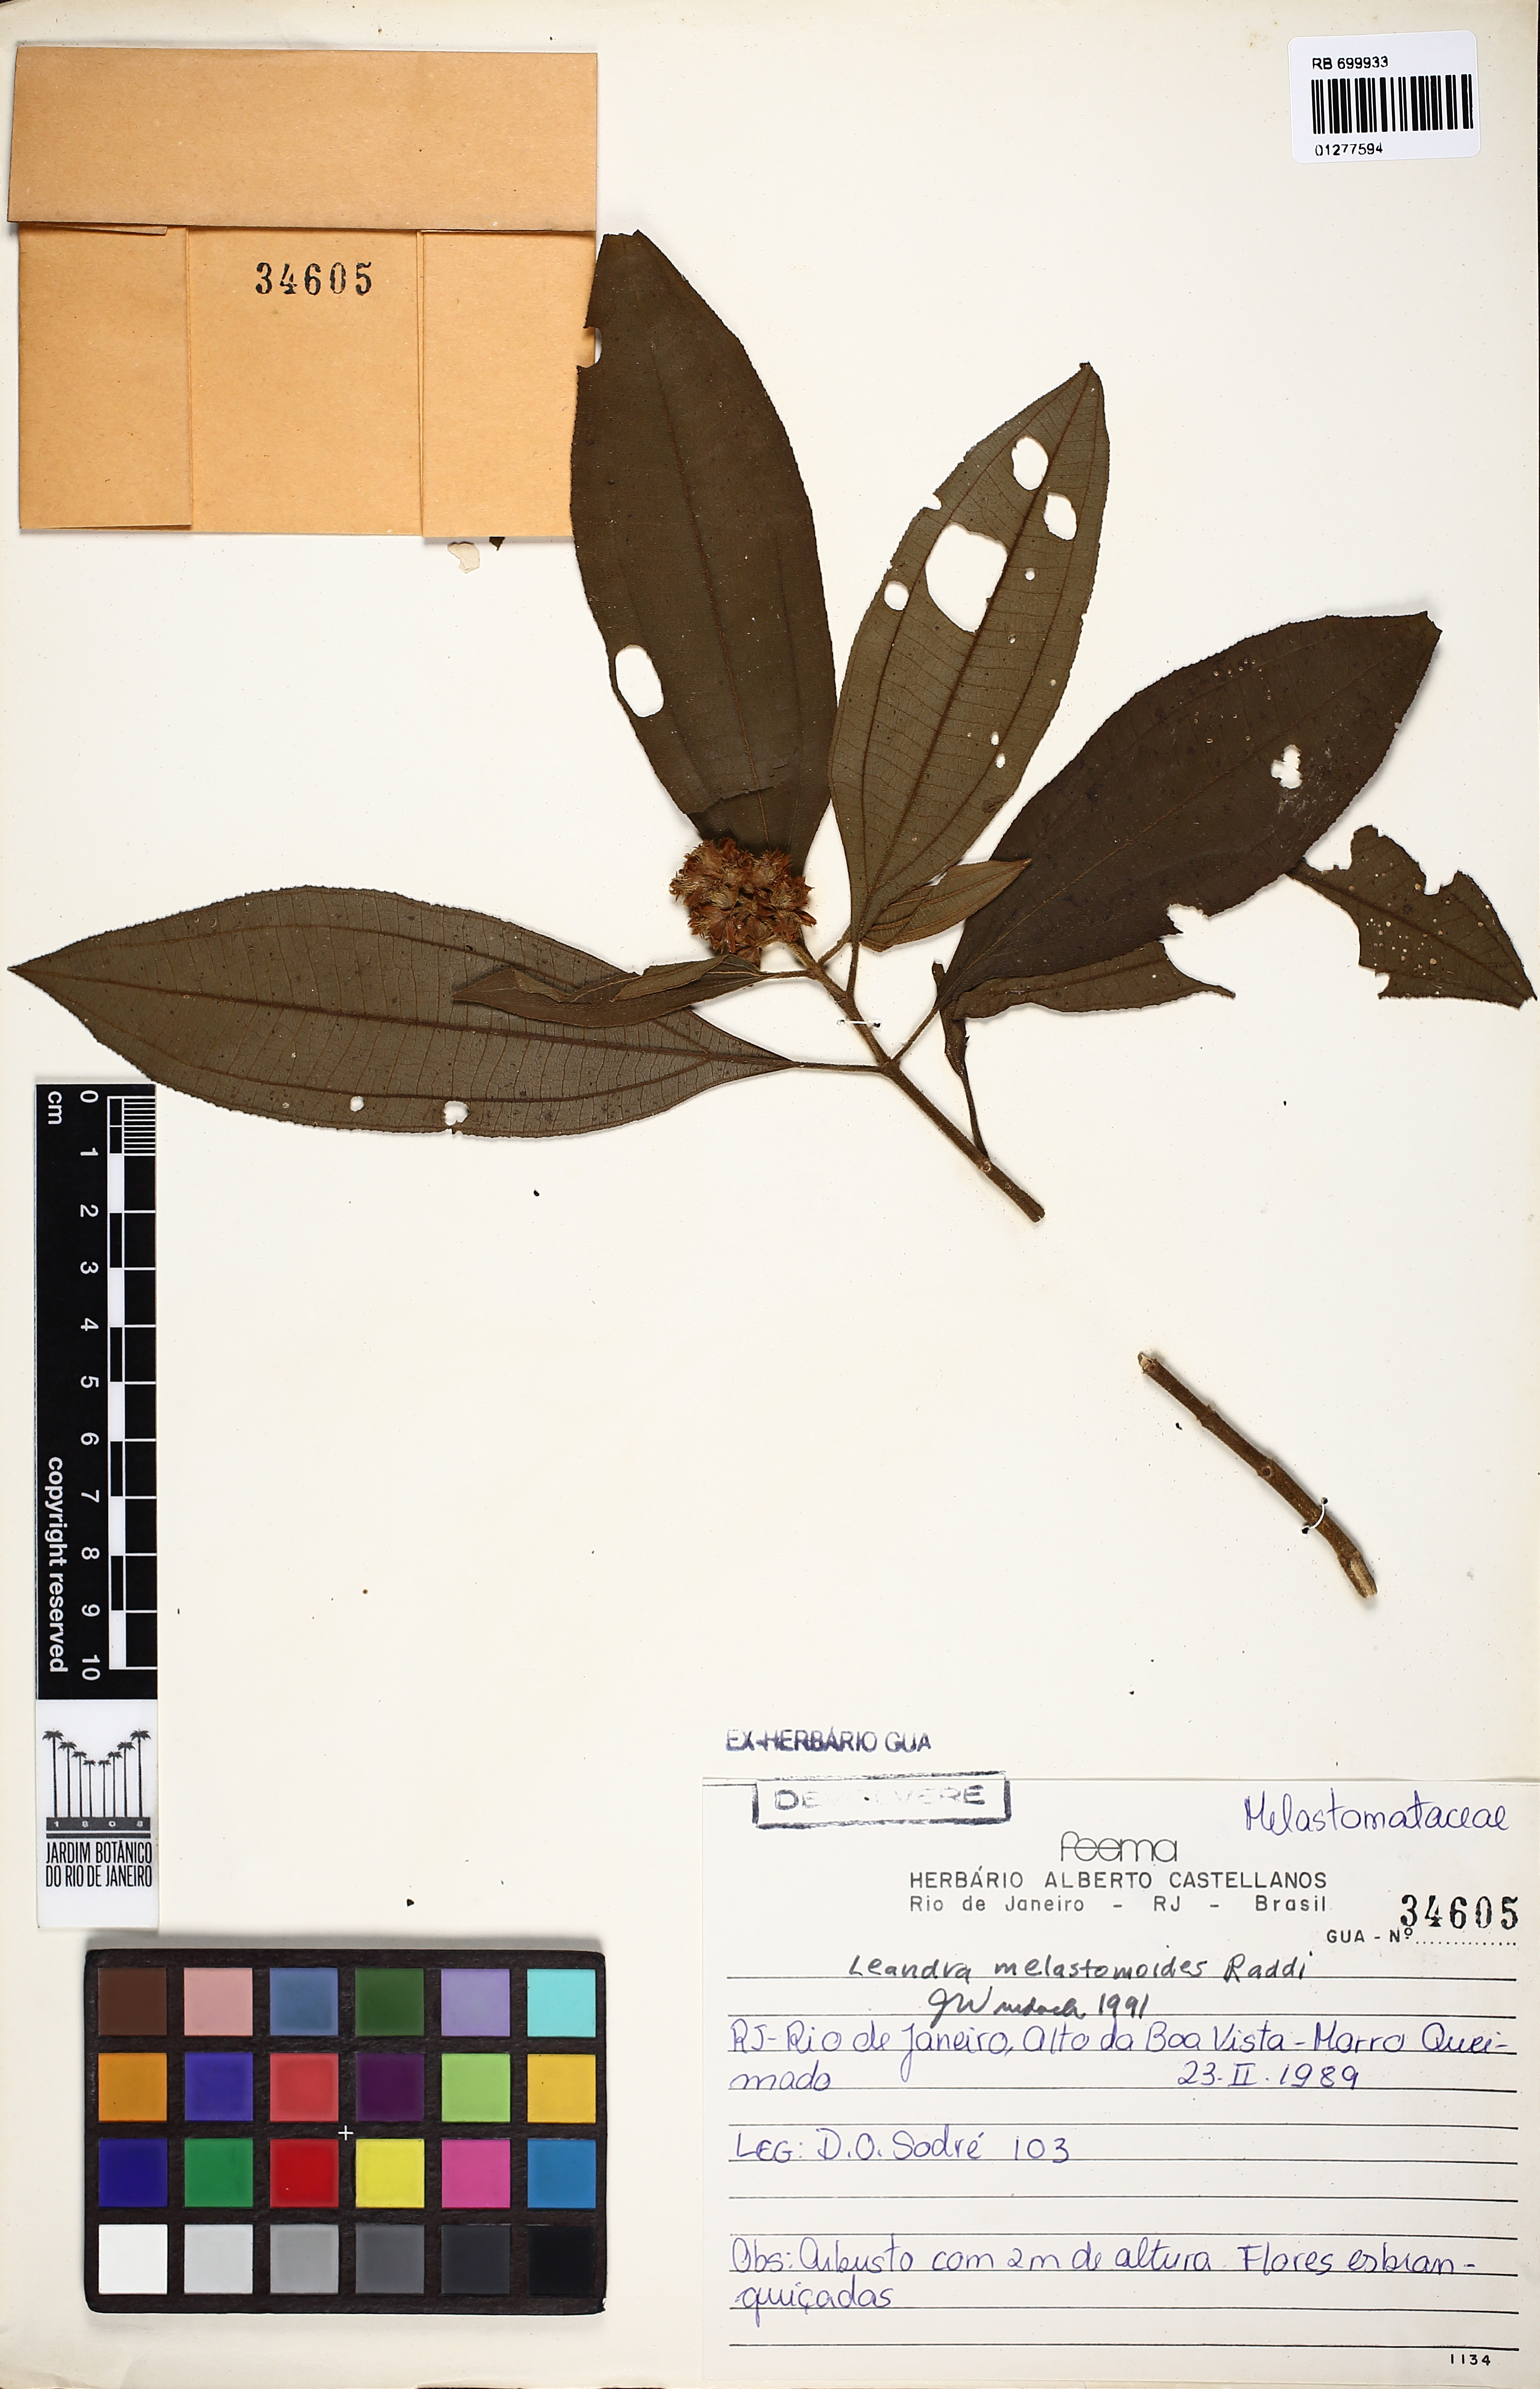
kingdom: Plantae
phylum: Tracheophyta
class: Magnoliopsida
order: Myrtales
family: Melastomataceae
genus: Miconia
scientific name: Miconia melastomoides
